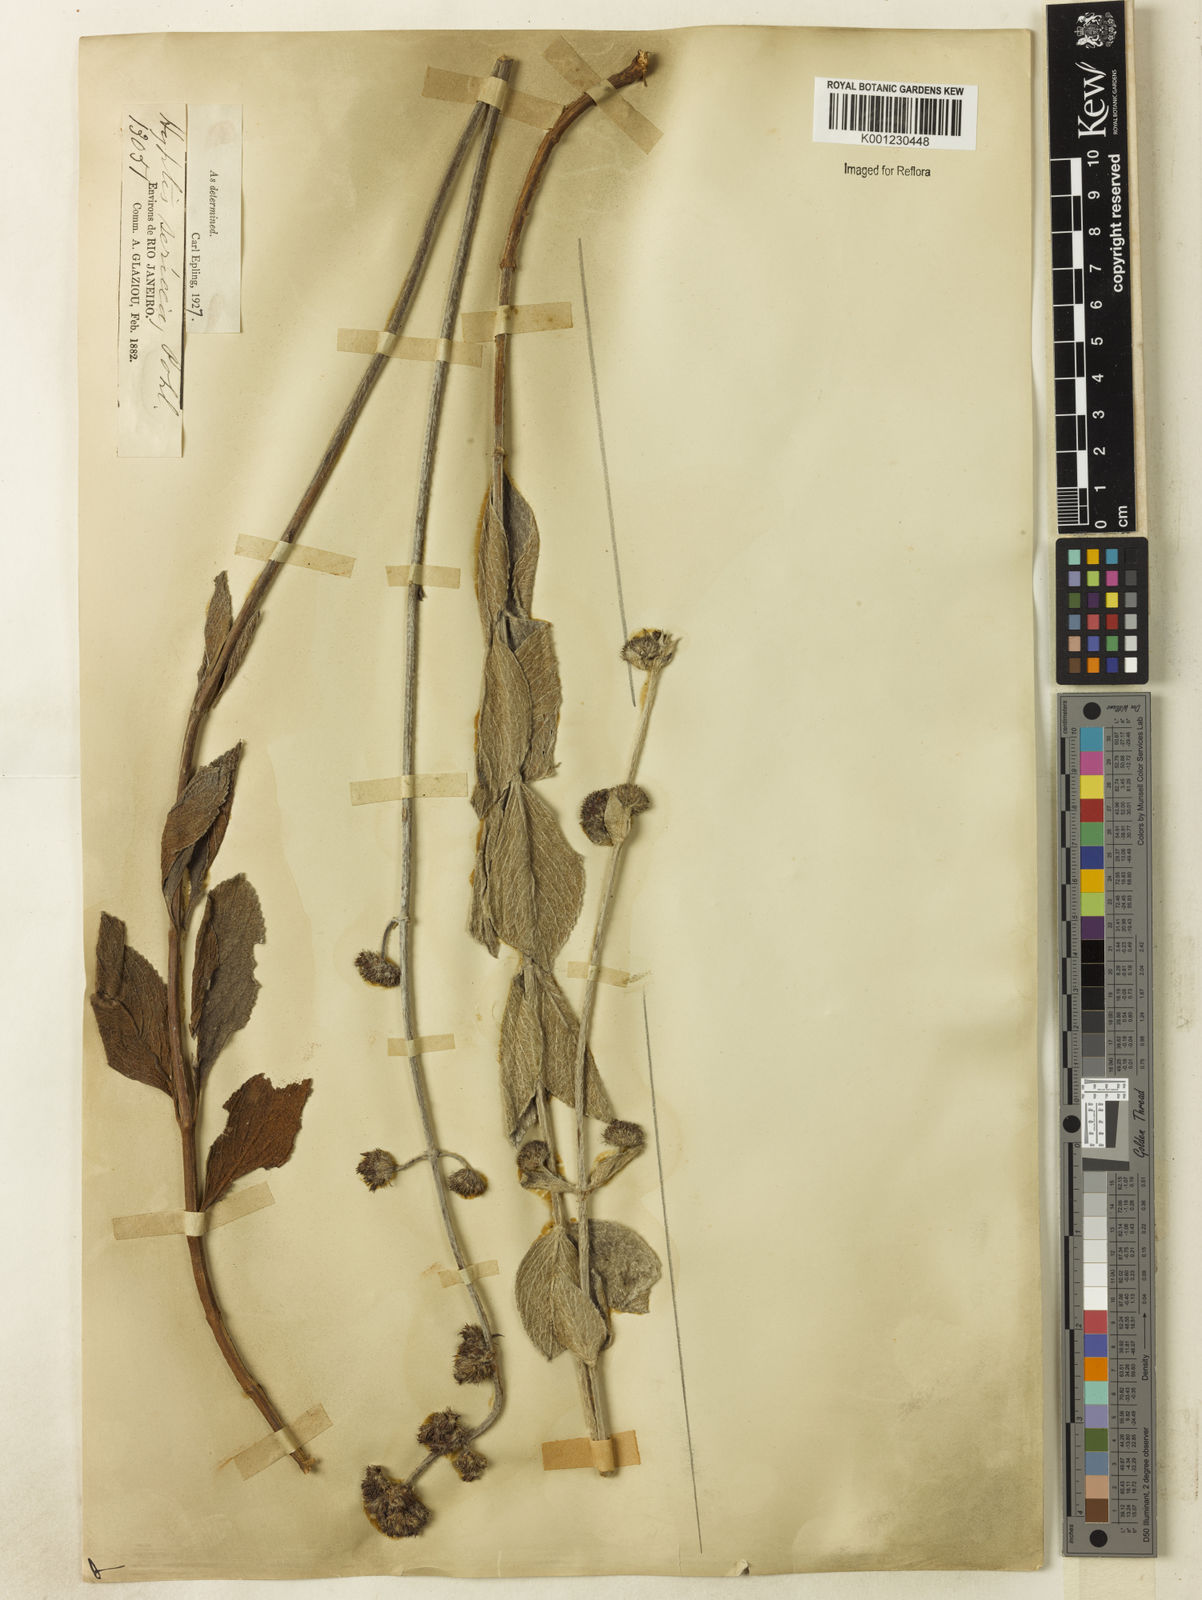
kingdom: Plantae
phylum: Tracheophyta
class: Magnoliopsida
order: Lamiales
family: Lamiaceae
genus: Hyptis
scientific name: Hyptis sericea
